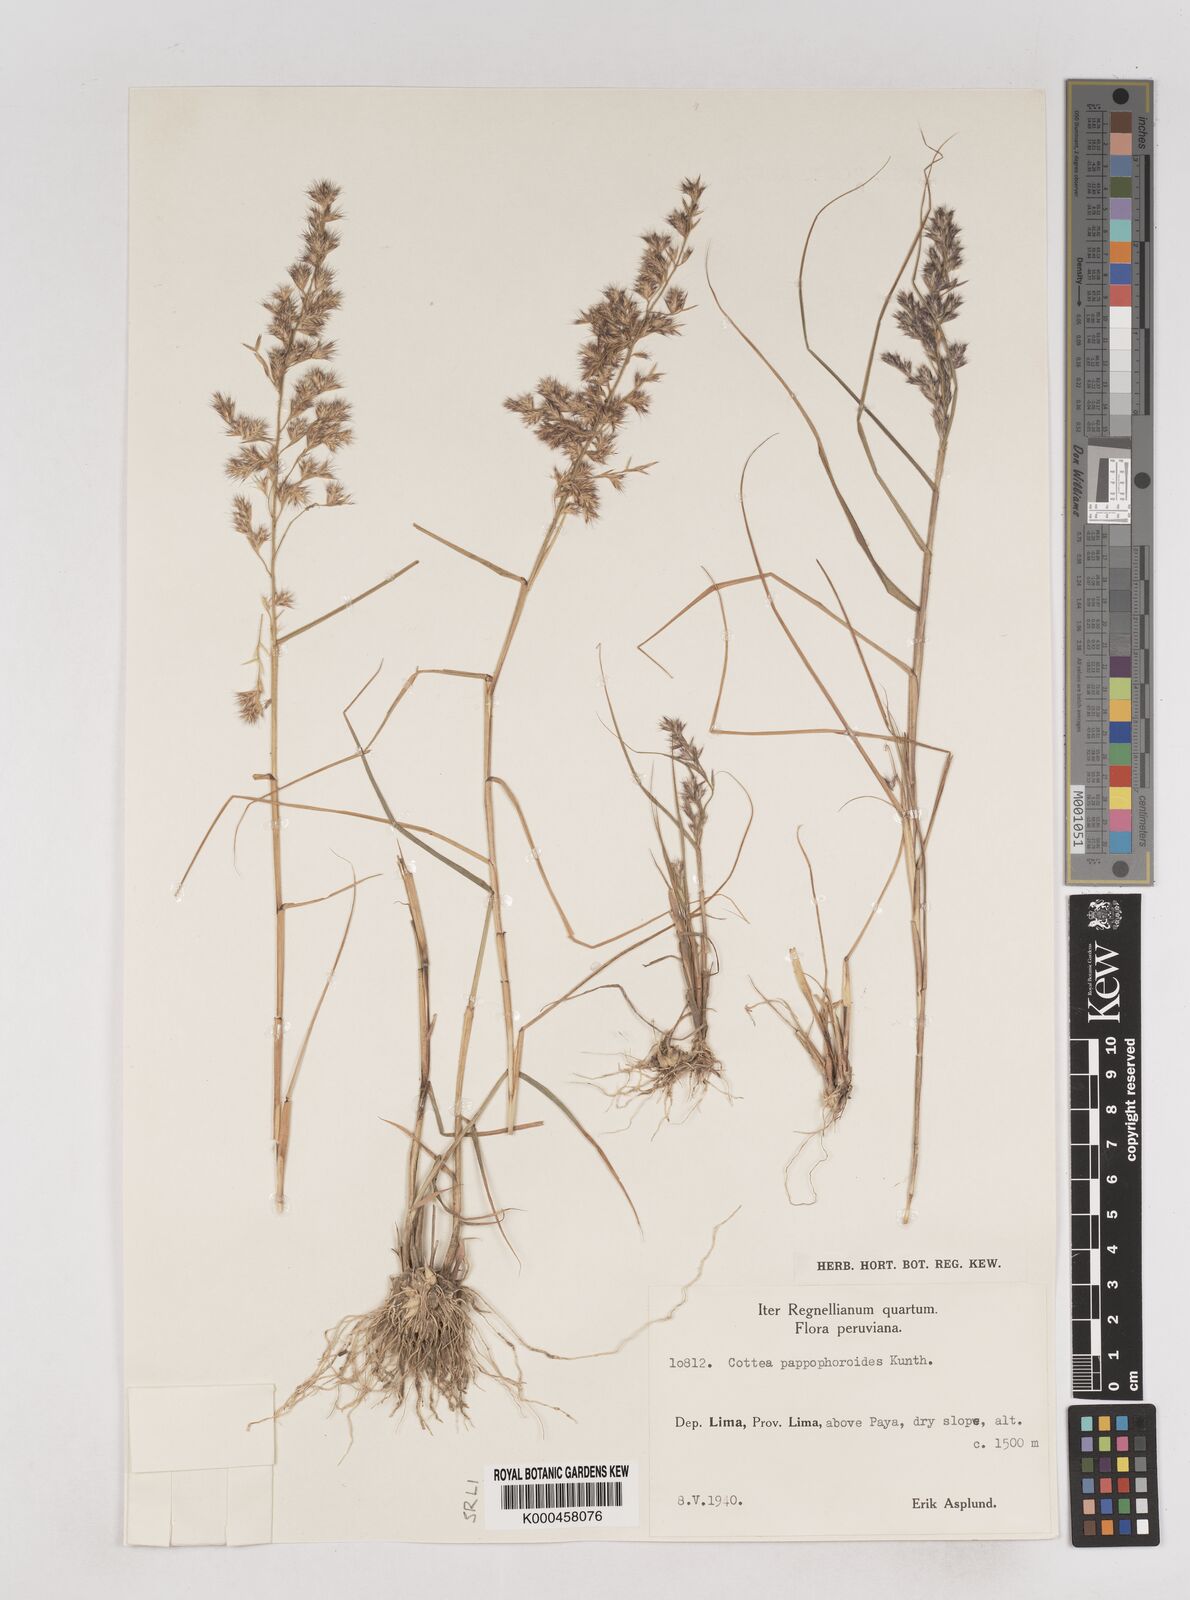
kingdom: Plantae
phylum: Tracheophyta
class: Liliopsida
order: Poales
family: Poaceae
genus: Cottea
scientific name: Cottea
